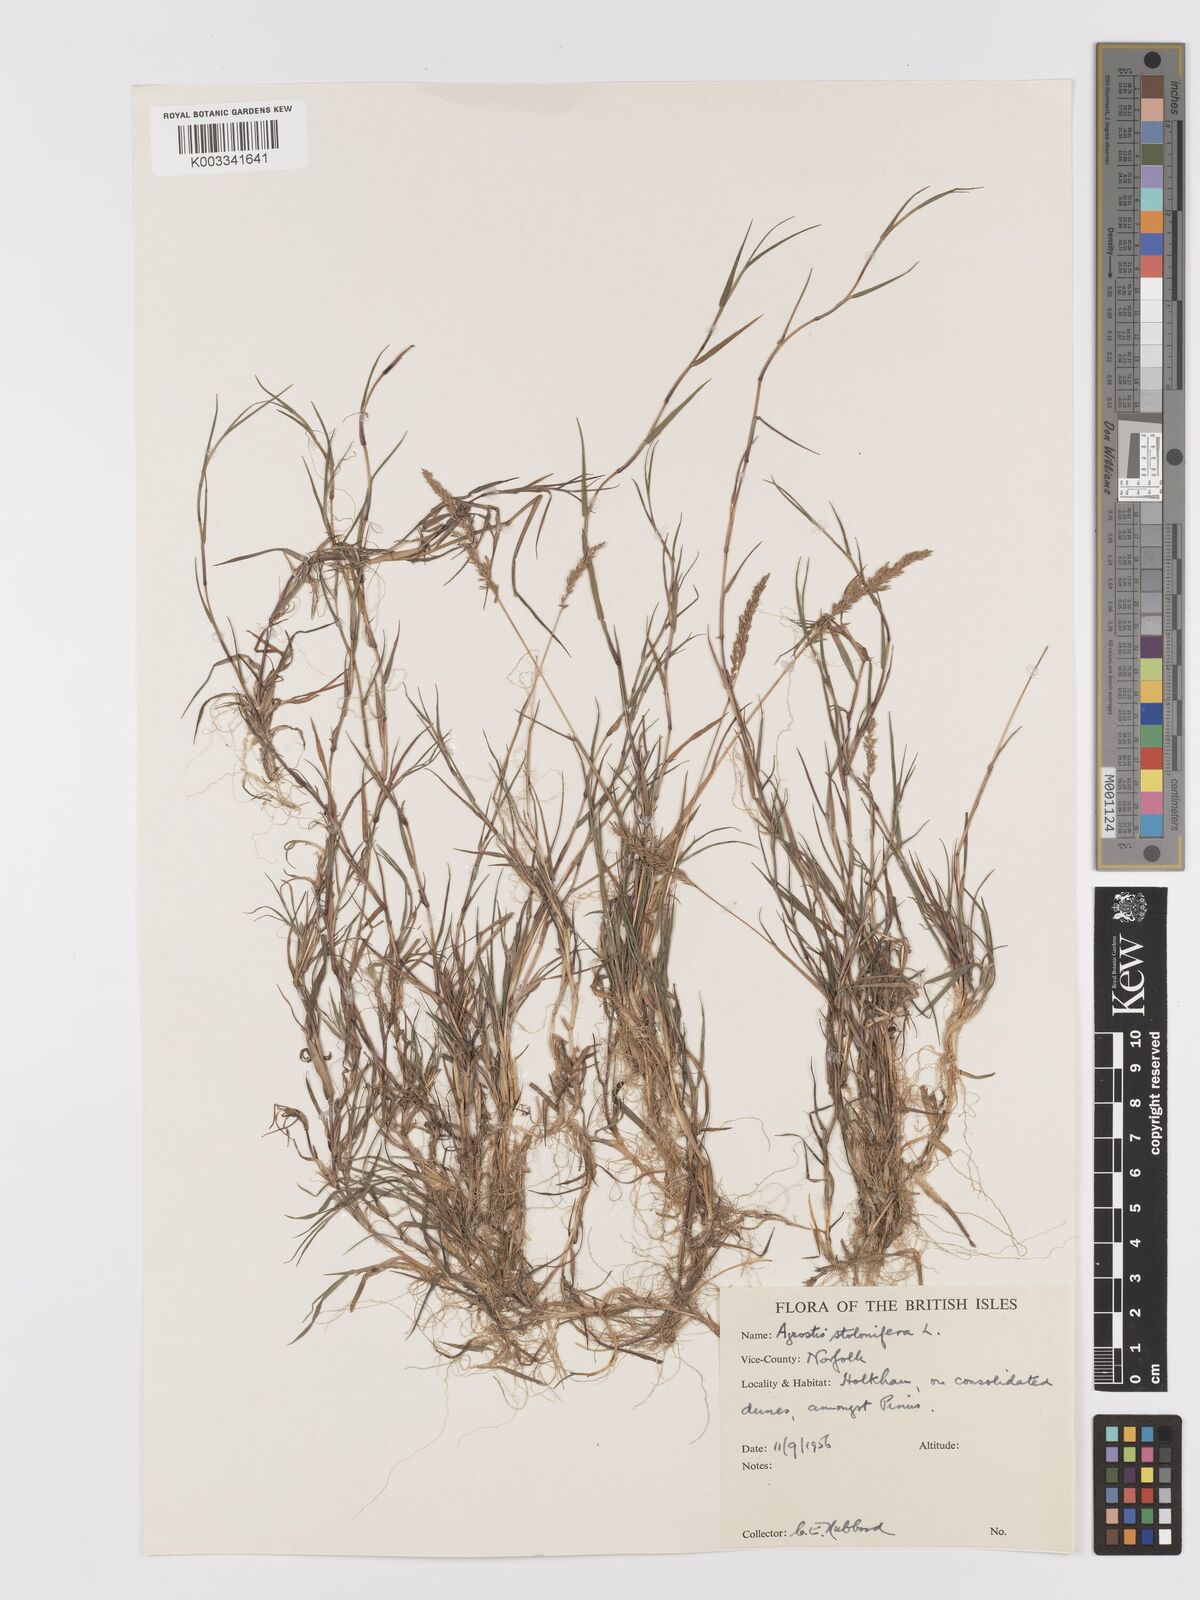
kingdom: Plantae
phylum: Tracheophyta
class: Liliopsida
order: Poales
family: Poaceae
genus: Agrostis
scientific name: Agrostis stolonifera
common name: Creeping bentgrass
